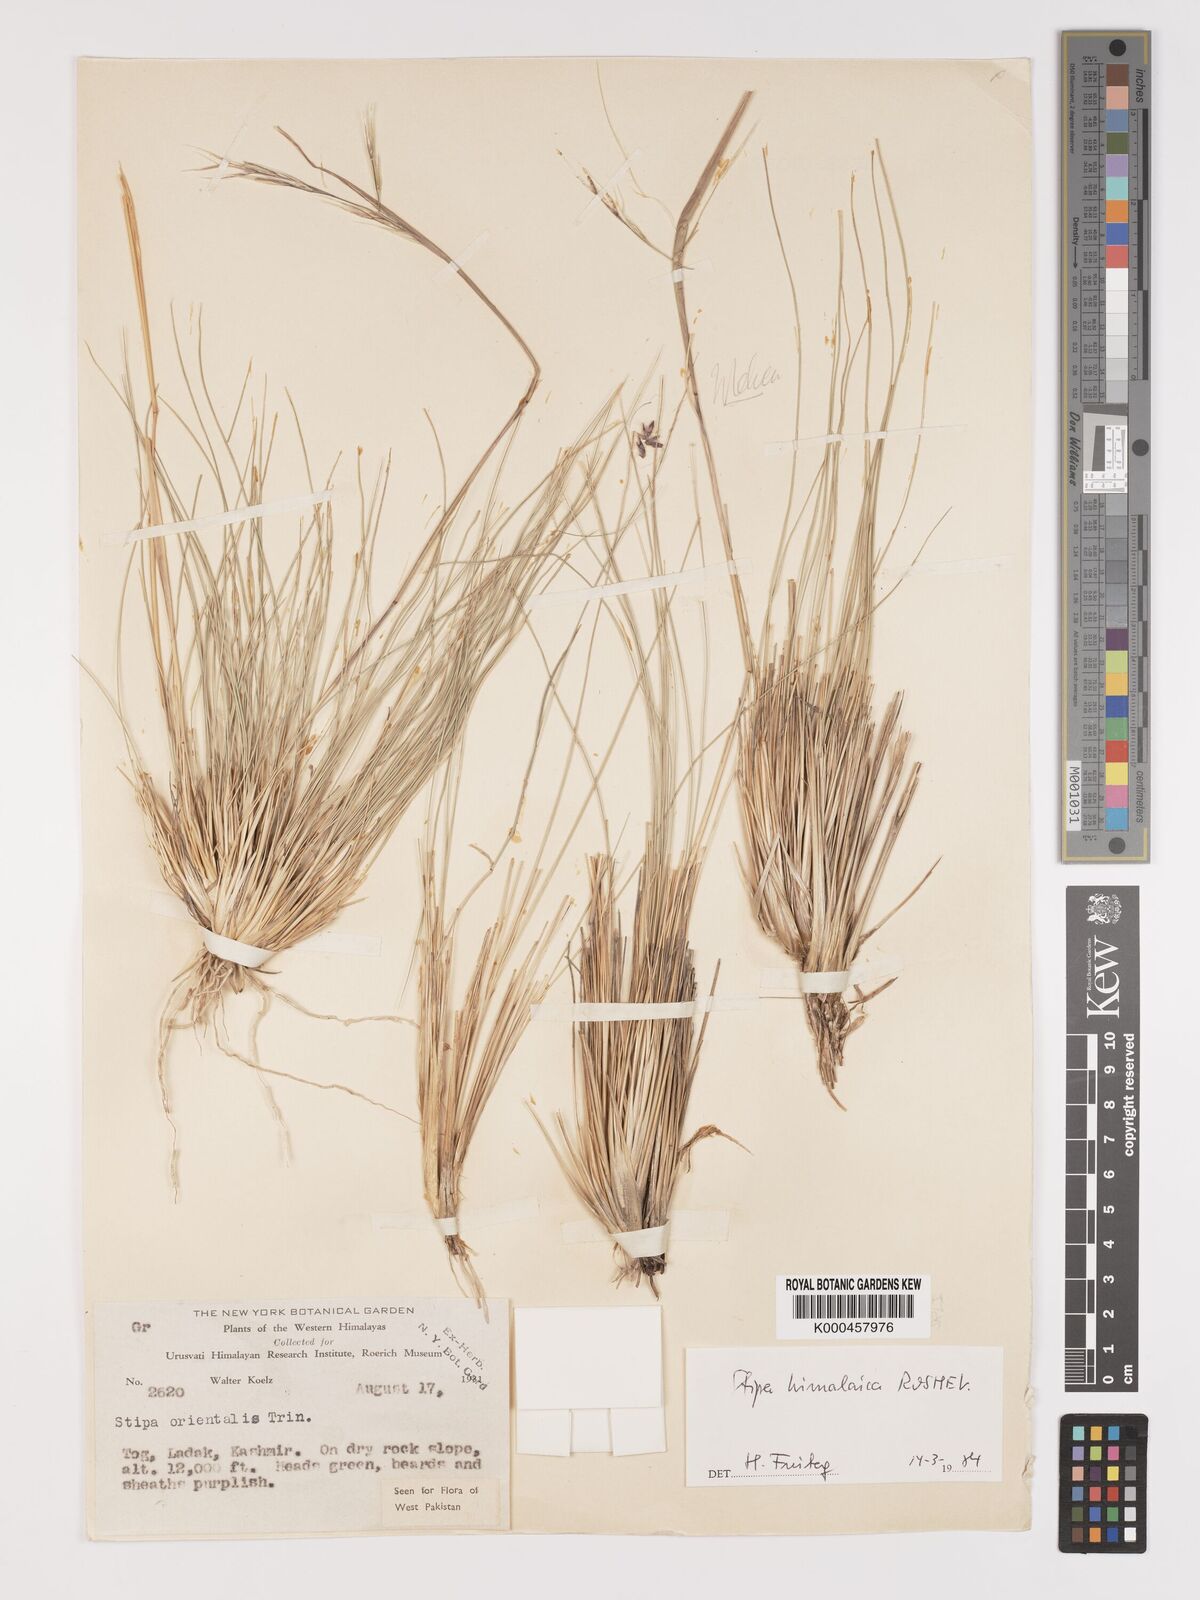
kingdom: Plantae
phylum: Tracheophyta
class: Liliopsida
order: Poales
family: Poaceae
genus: Stipa
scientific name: Stipa himalaica
